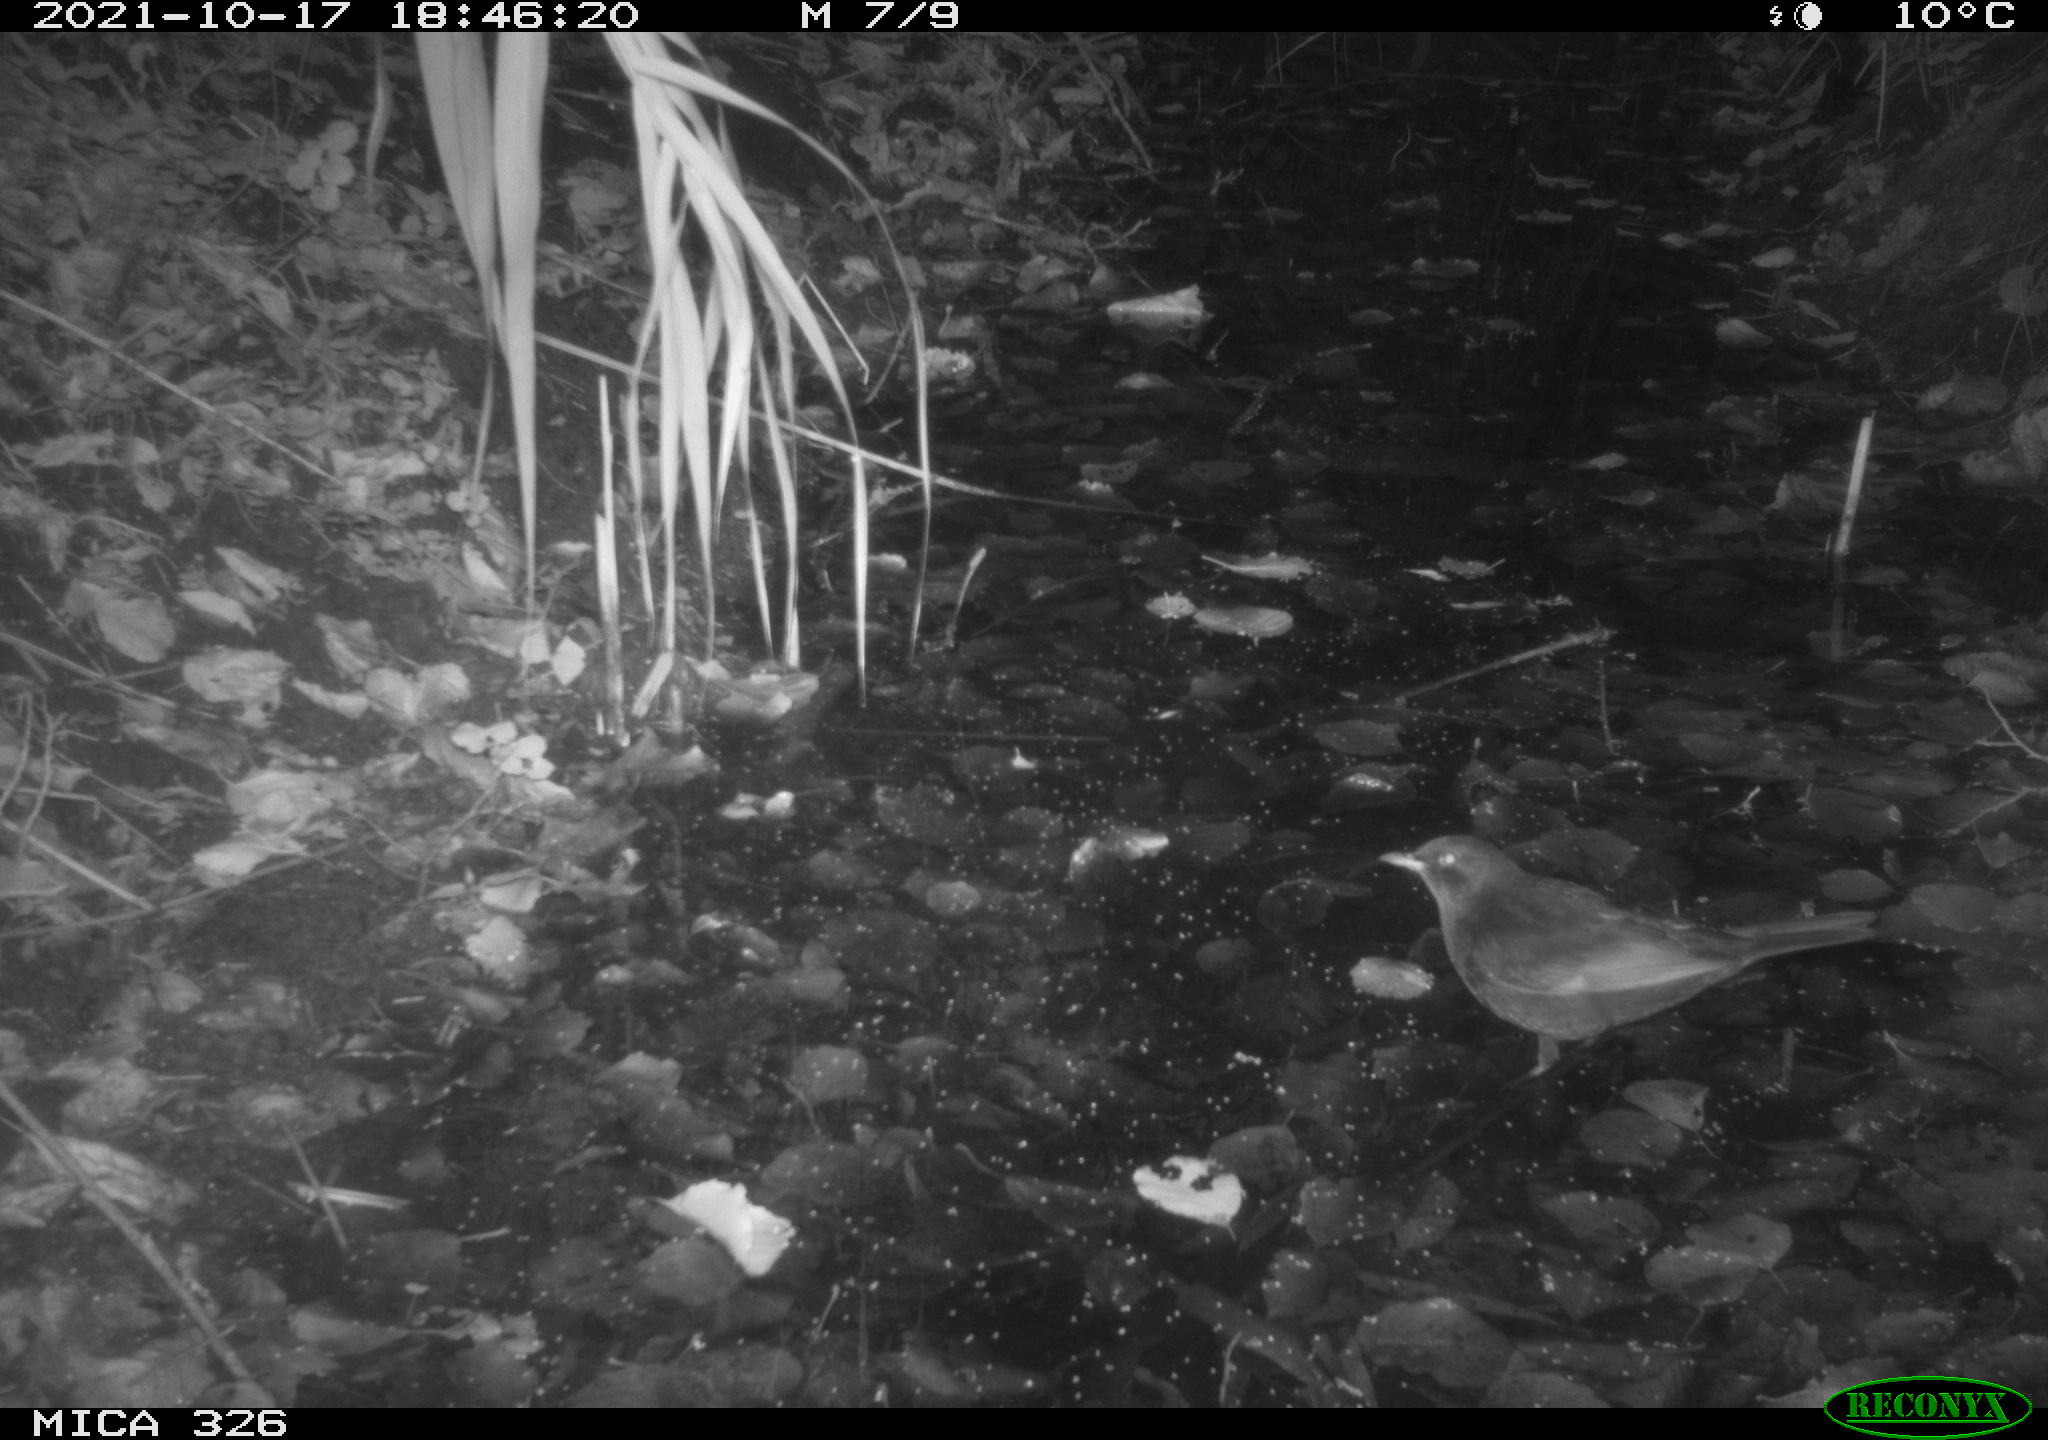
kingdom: Animalia
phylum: Chordata
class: Aves
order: Passeriformes
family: Turdidae
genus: Turdus
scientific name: Turdus merula
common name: Common blackbird
